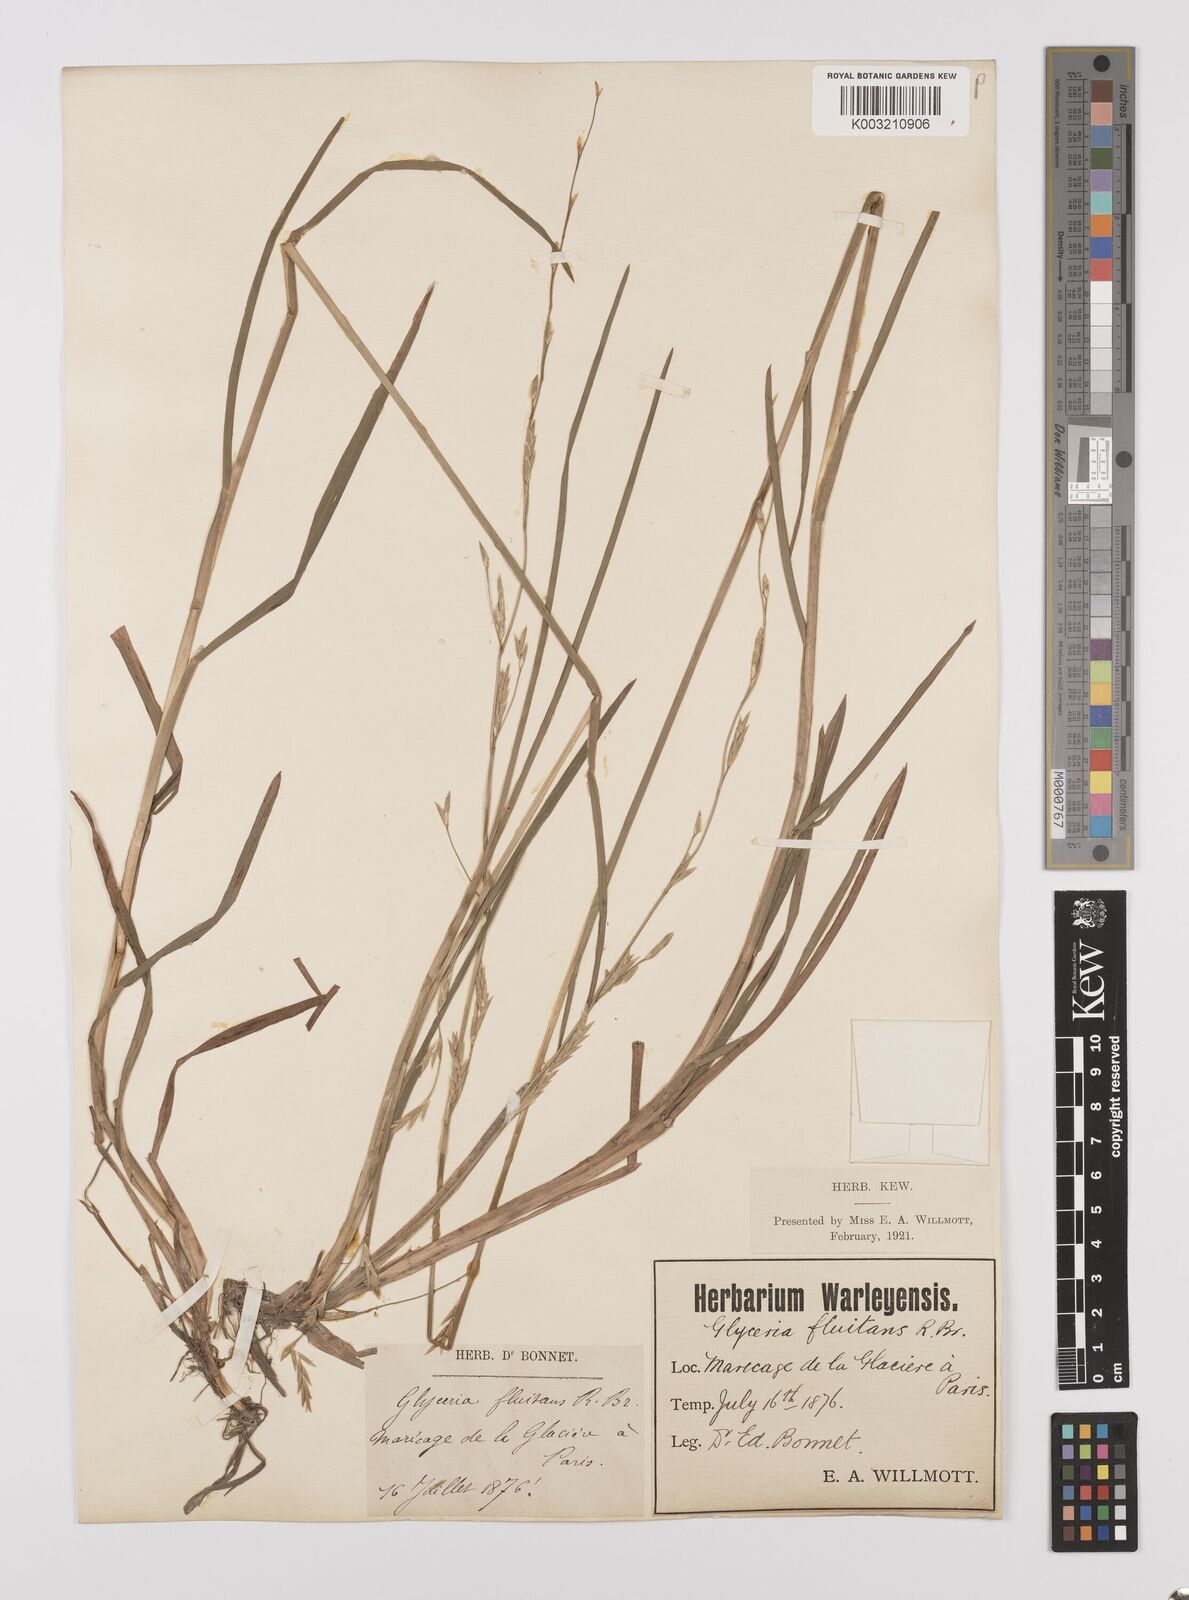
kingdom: Plantae
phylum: Tracheophyta
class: Liliopsida
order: Poales
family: Poaceae
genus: Glyceria
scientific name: Glyceria fluitans
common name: Floating sweet-grass
